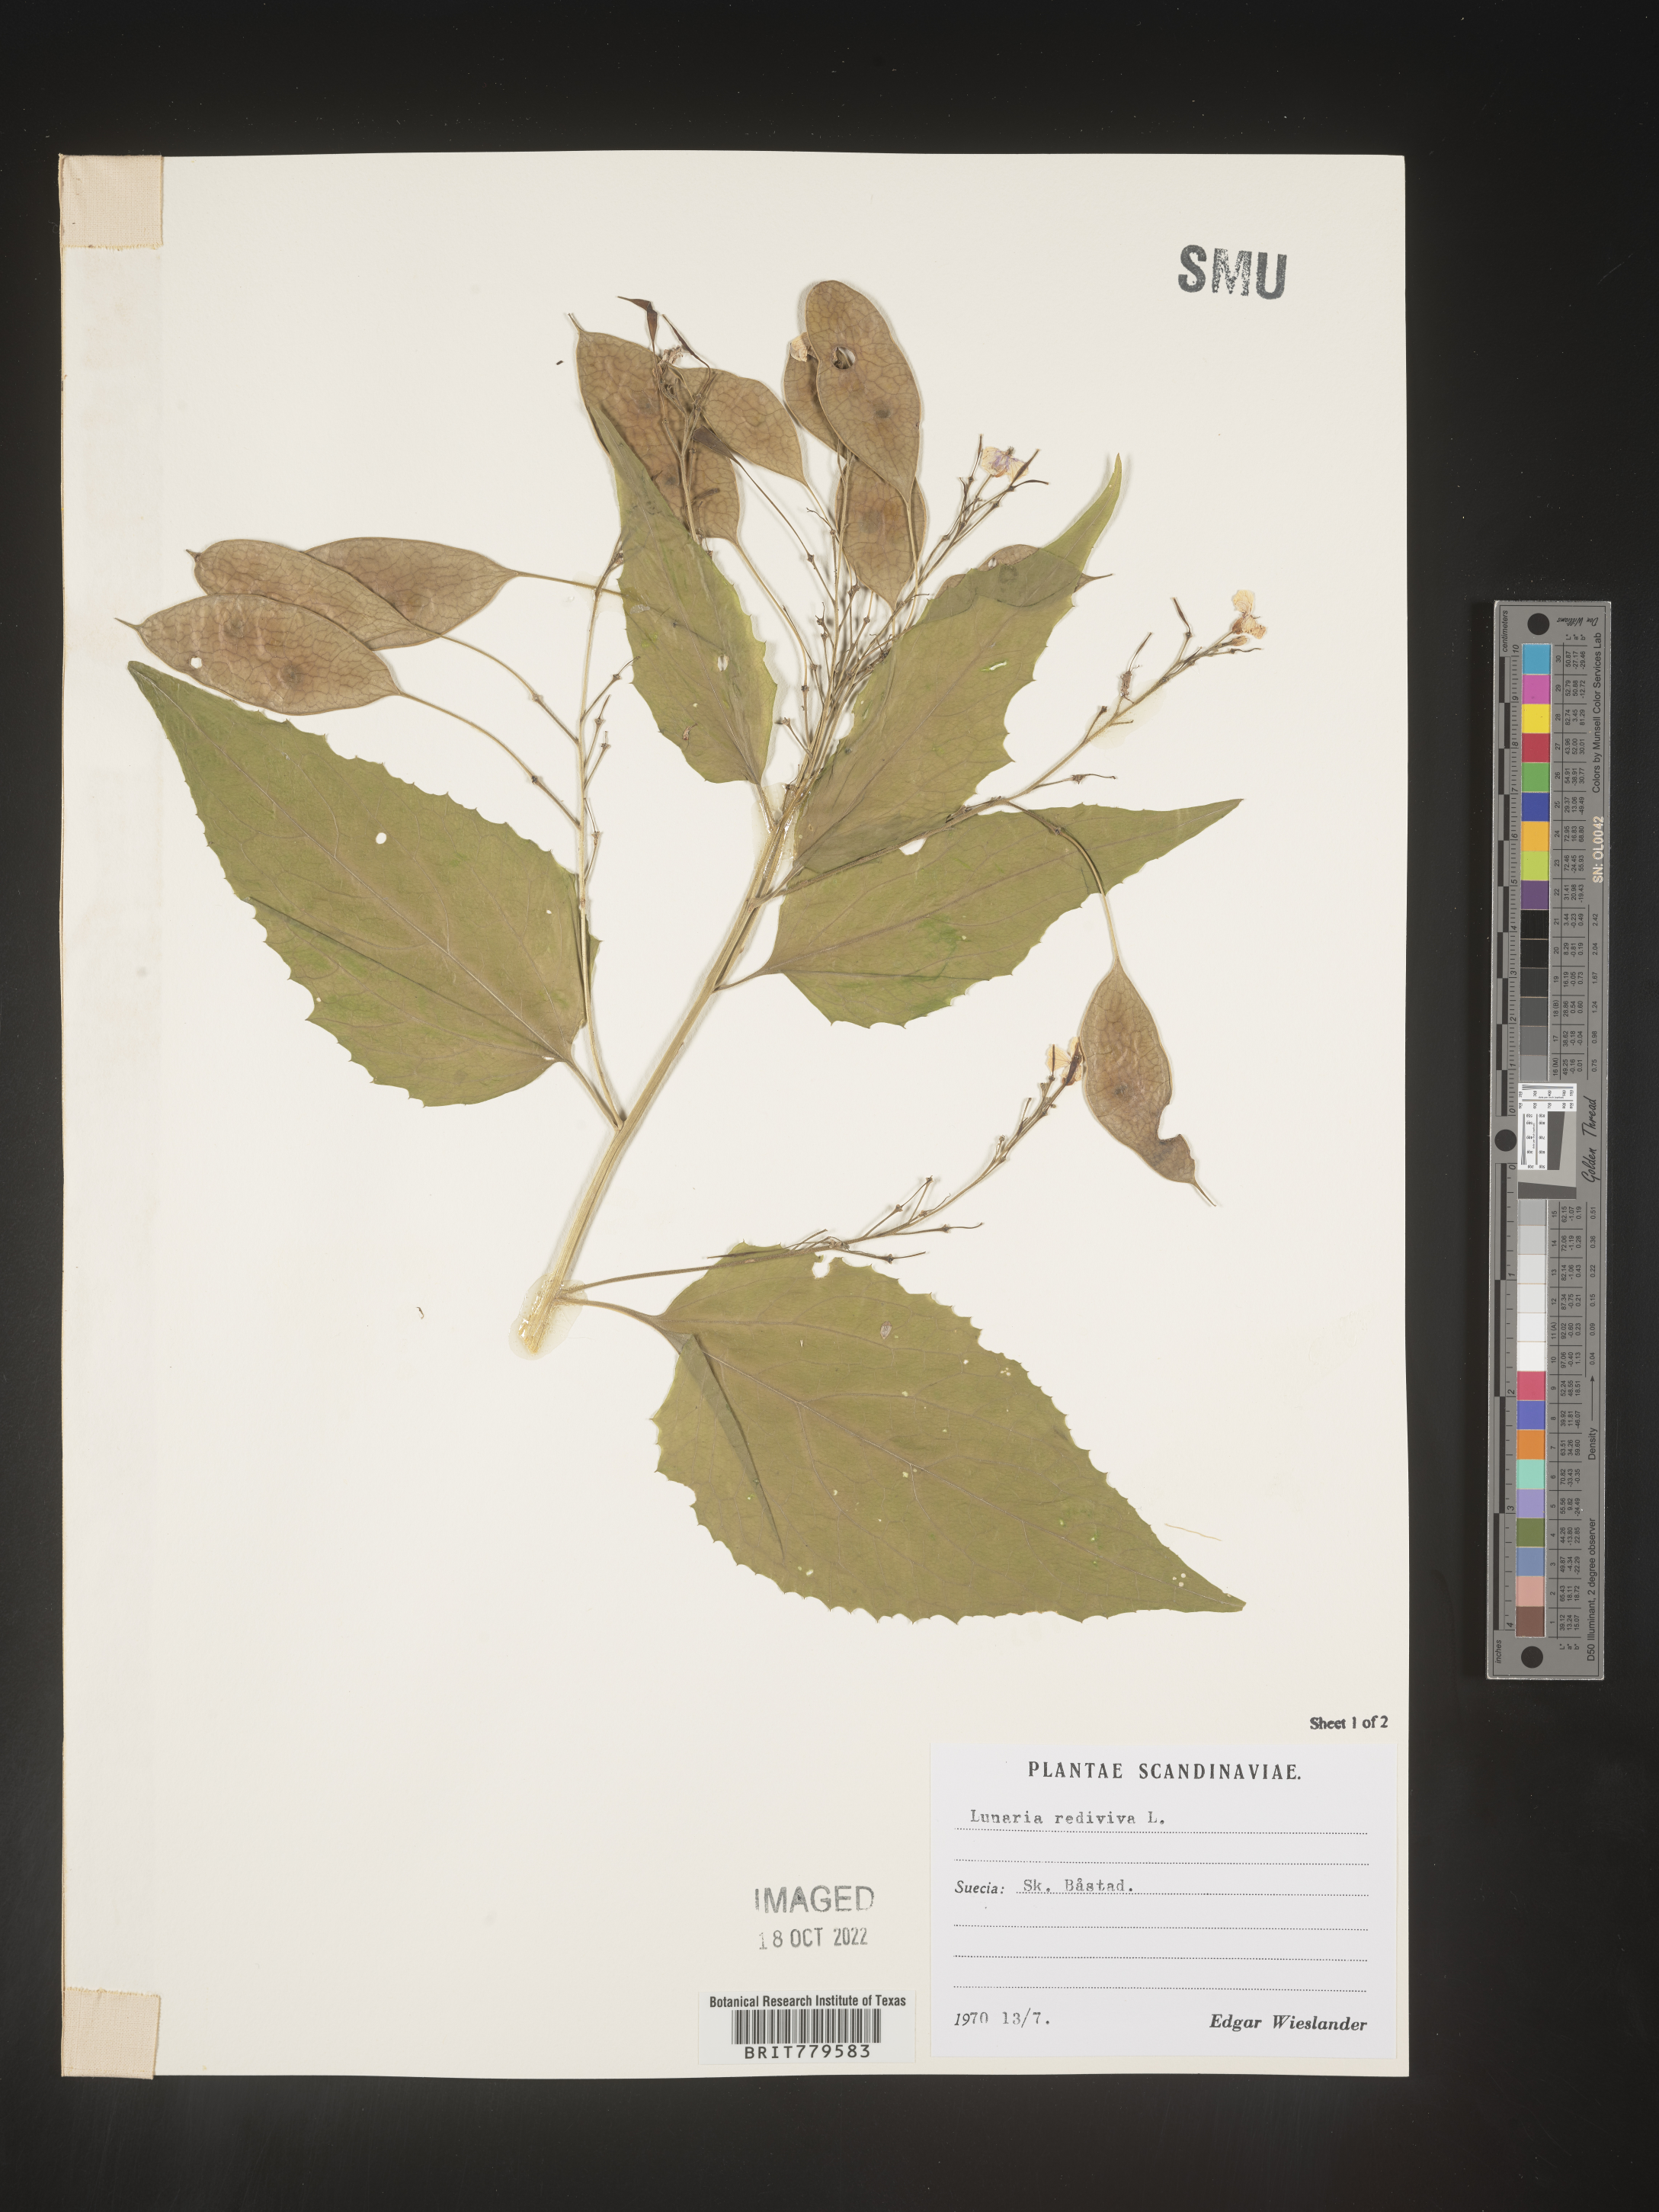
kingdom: Plantae
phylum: Tracheophyta
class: Magnoliopsida
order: Brassicales
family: Brassicaceae
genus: Lunaria
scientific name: Lunaria
